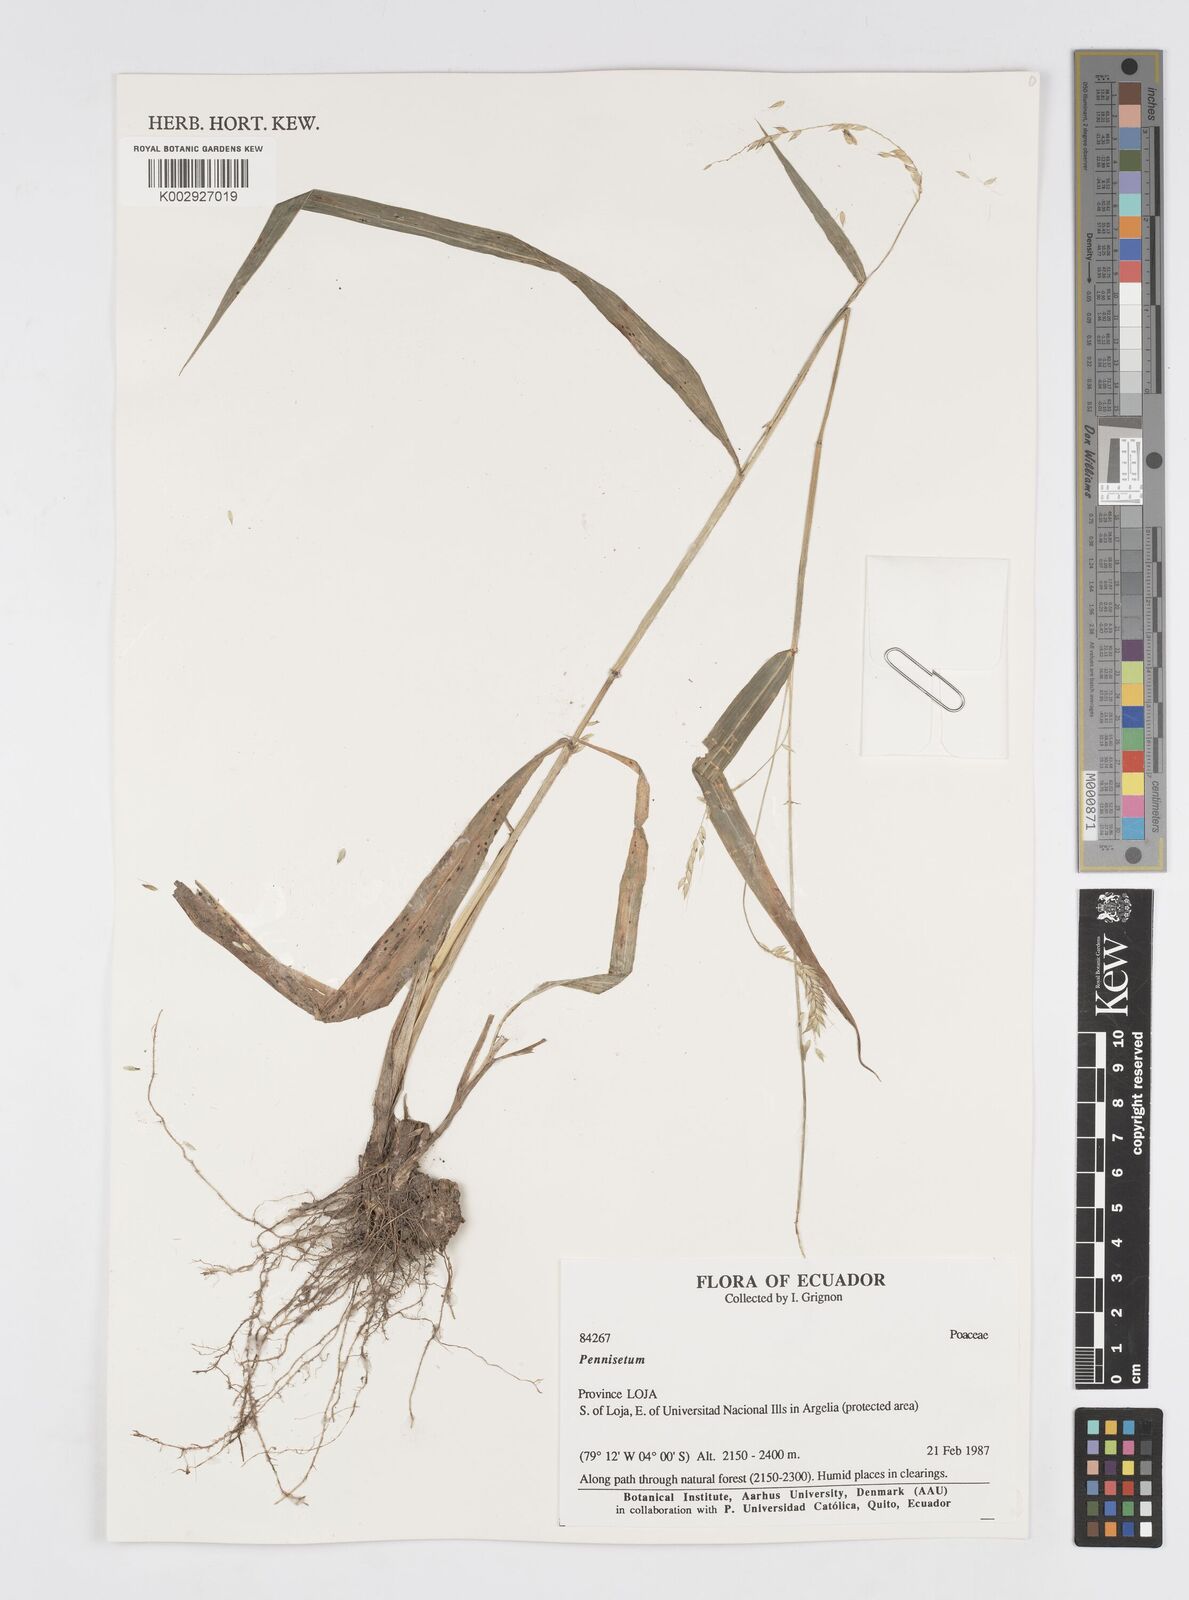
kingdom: Plantae
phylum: Tracheophyta
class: Liliopsida
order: Poales
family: Poaceae
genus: Cenchrus
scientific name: Cenchrus latifolius
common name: Sandbur
